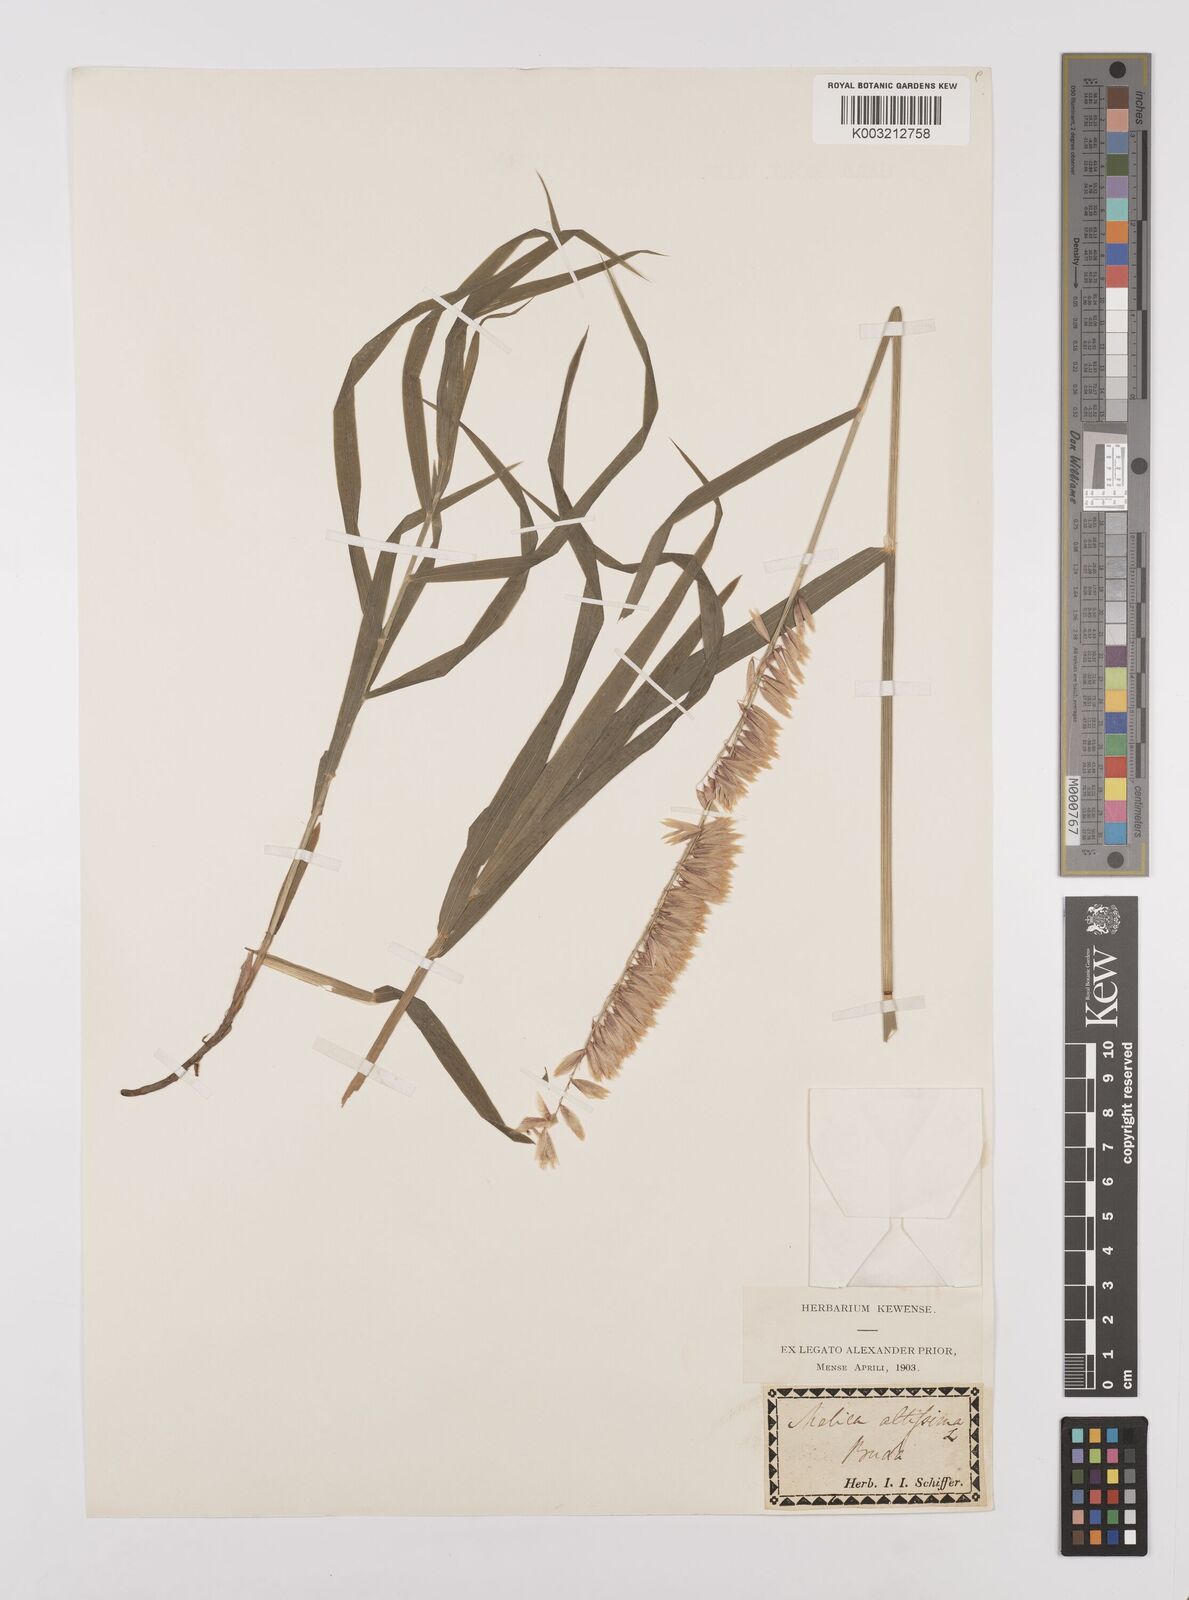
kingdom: Plantae
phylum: Tracheophyta
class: Liliopsida
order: Poales
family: Poaceae
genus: Melica
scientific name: Melica altissima
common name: Siberian melicgrass
